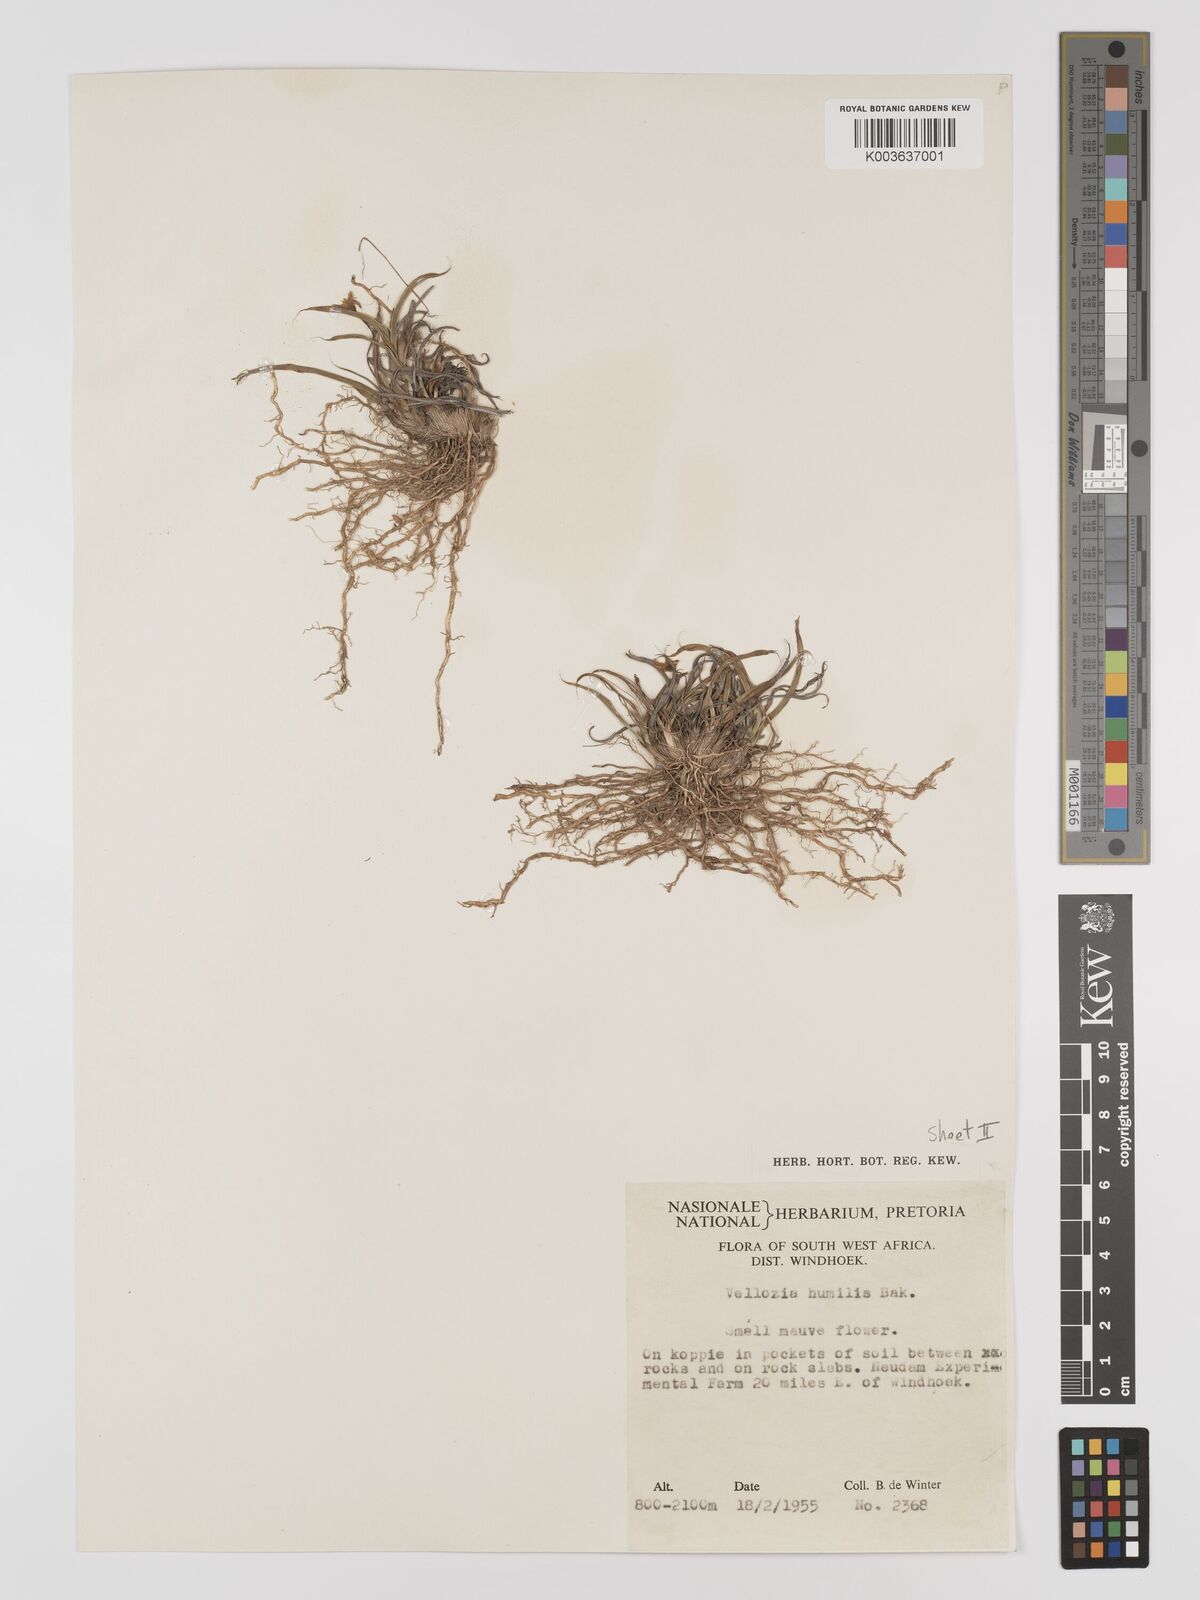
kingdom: Plantae
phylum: Tracheophyta
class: Liliopsida
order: Pandanales
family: Velloziaceae
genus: Xerophyta
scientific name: Xerophyta humilis
